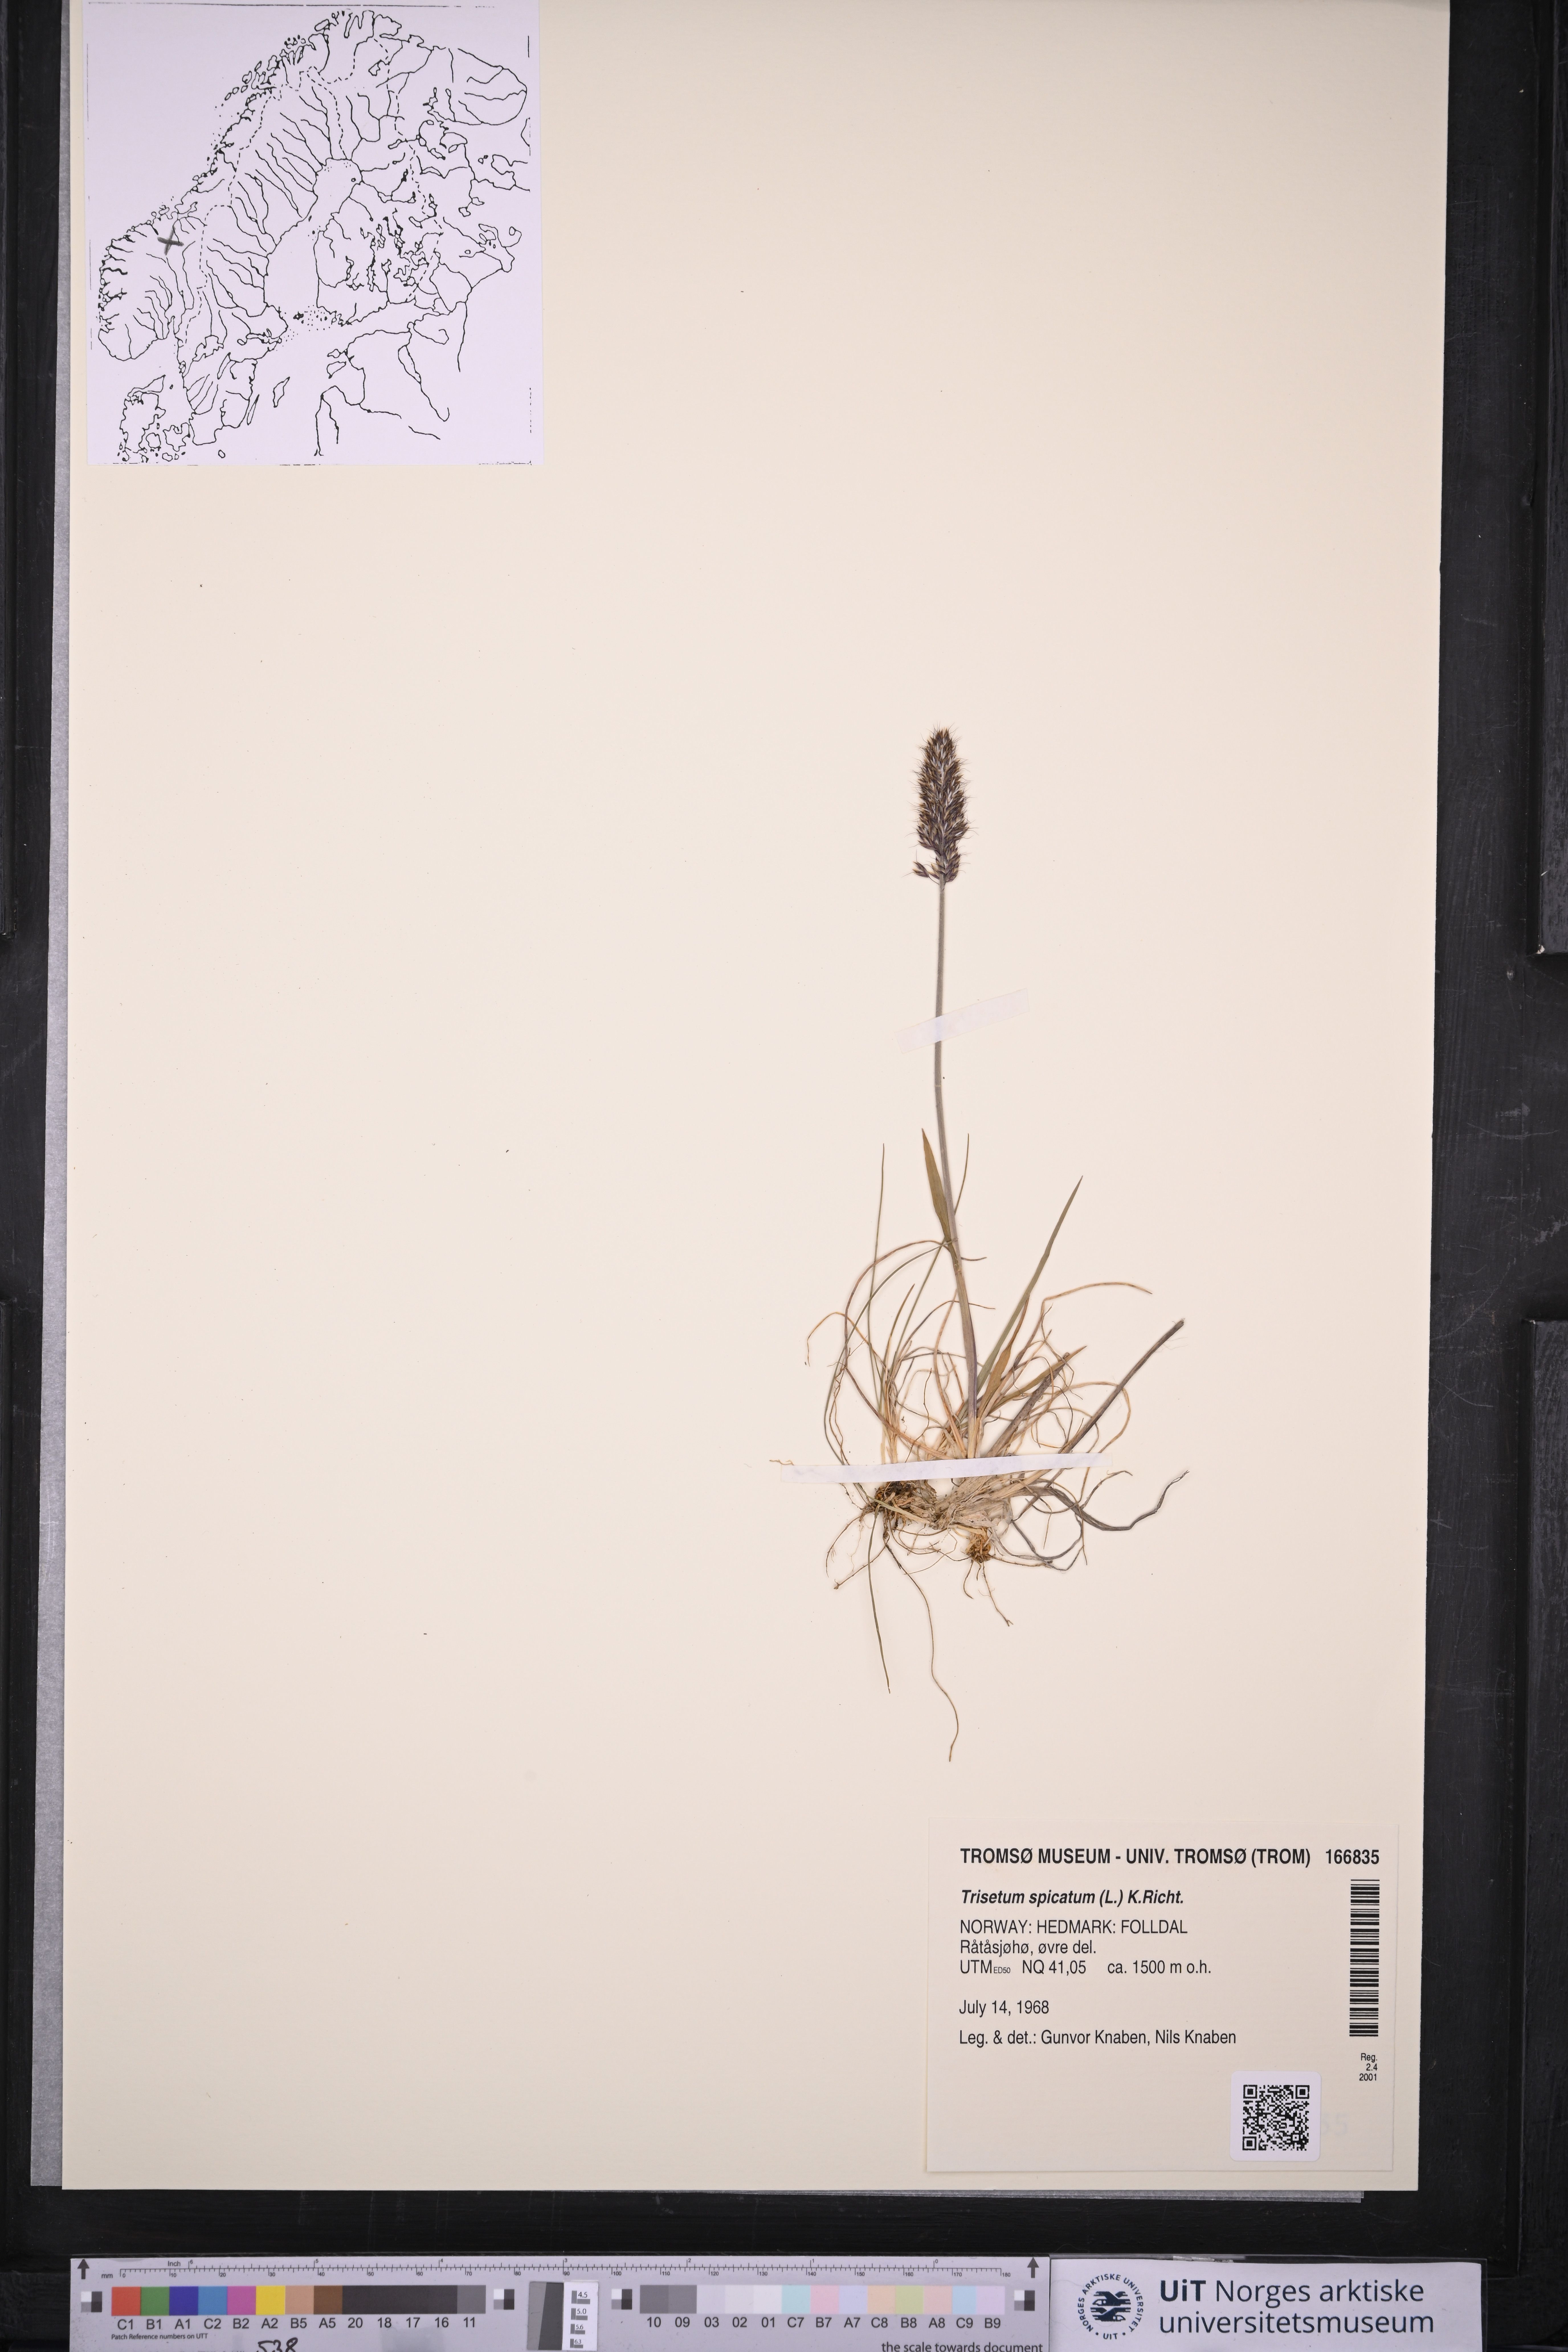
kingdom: Plantae
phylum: Tracheophyta
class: Liliopsida
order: Poales
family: Poaceae
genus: Koeleria
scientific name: Koeleria spicata
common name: Mountain trisetum
